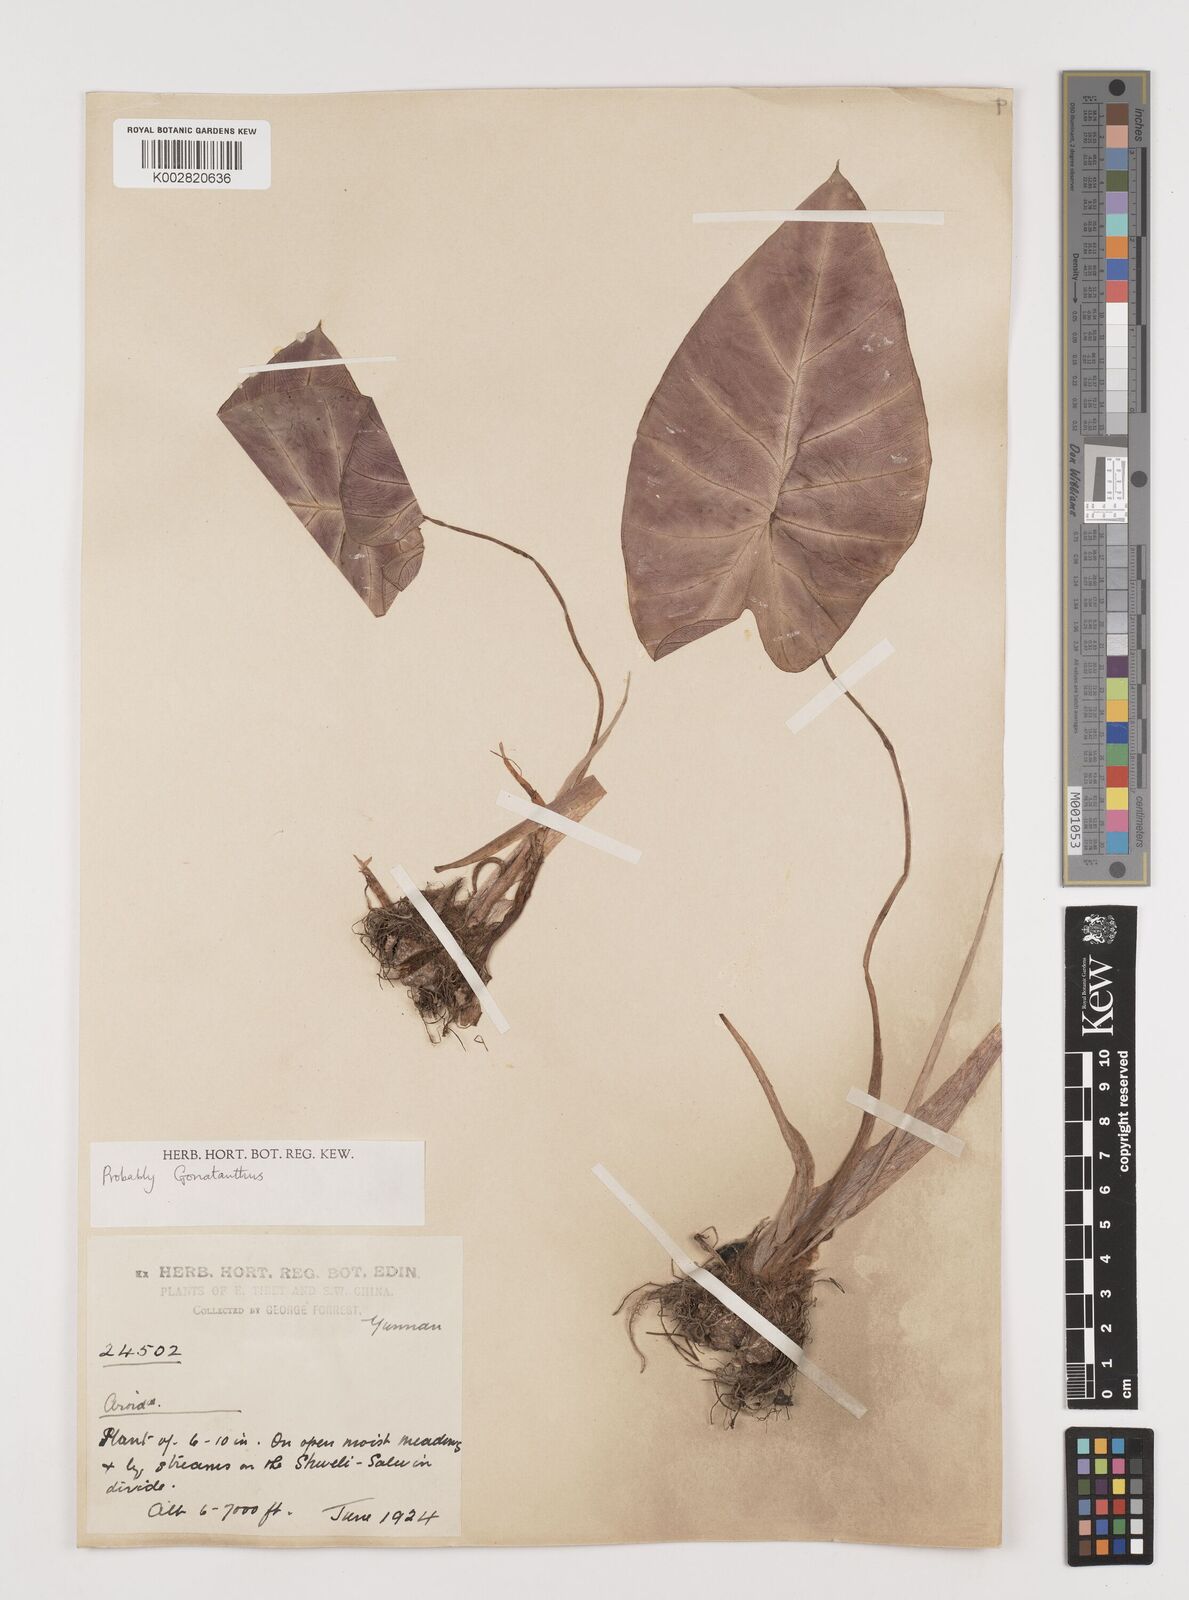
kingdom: Plantae
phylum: Tracheophyta
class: Liliopsida
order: Alismatales
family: Araceae
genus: Remusatia
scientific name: Remusatia pumila
